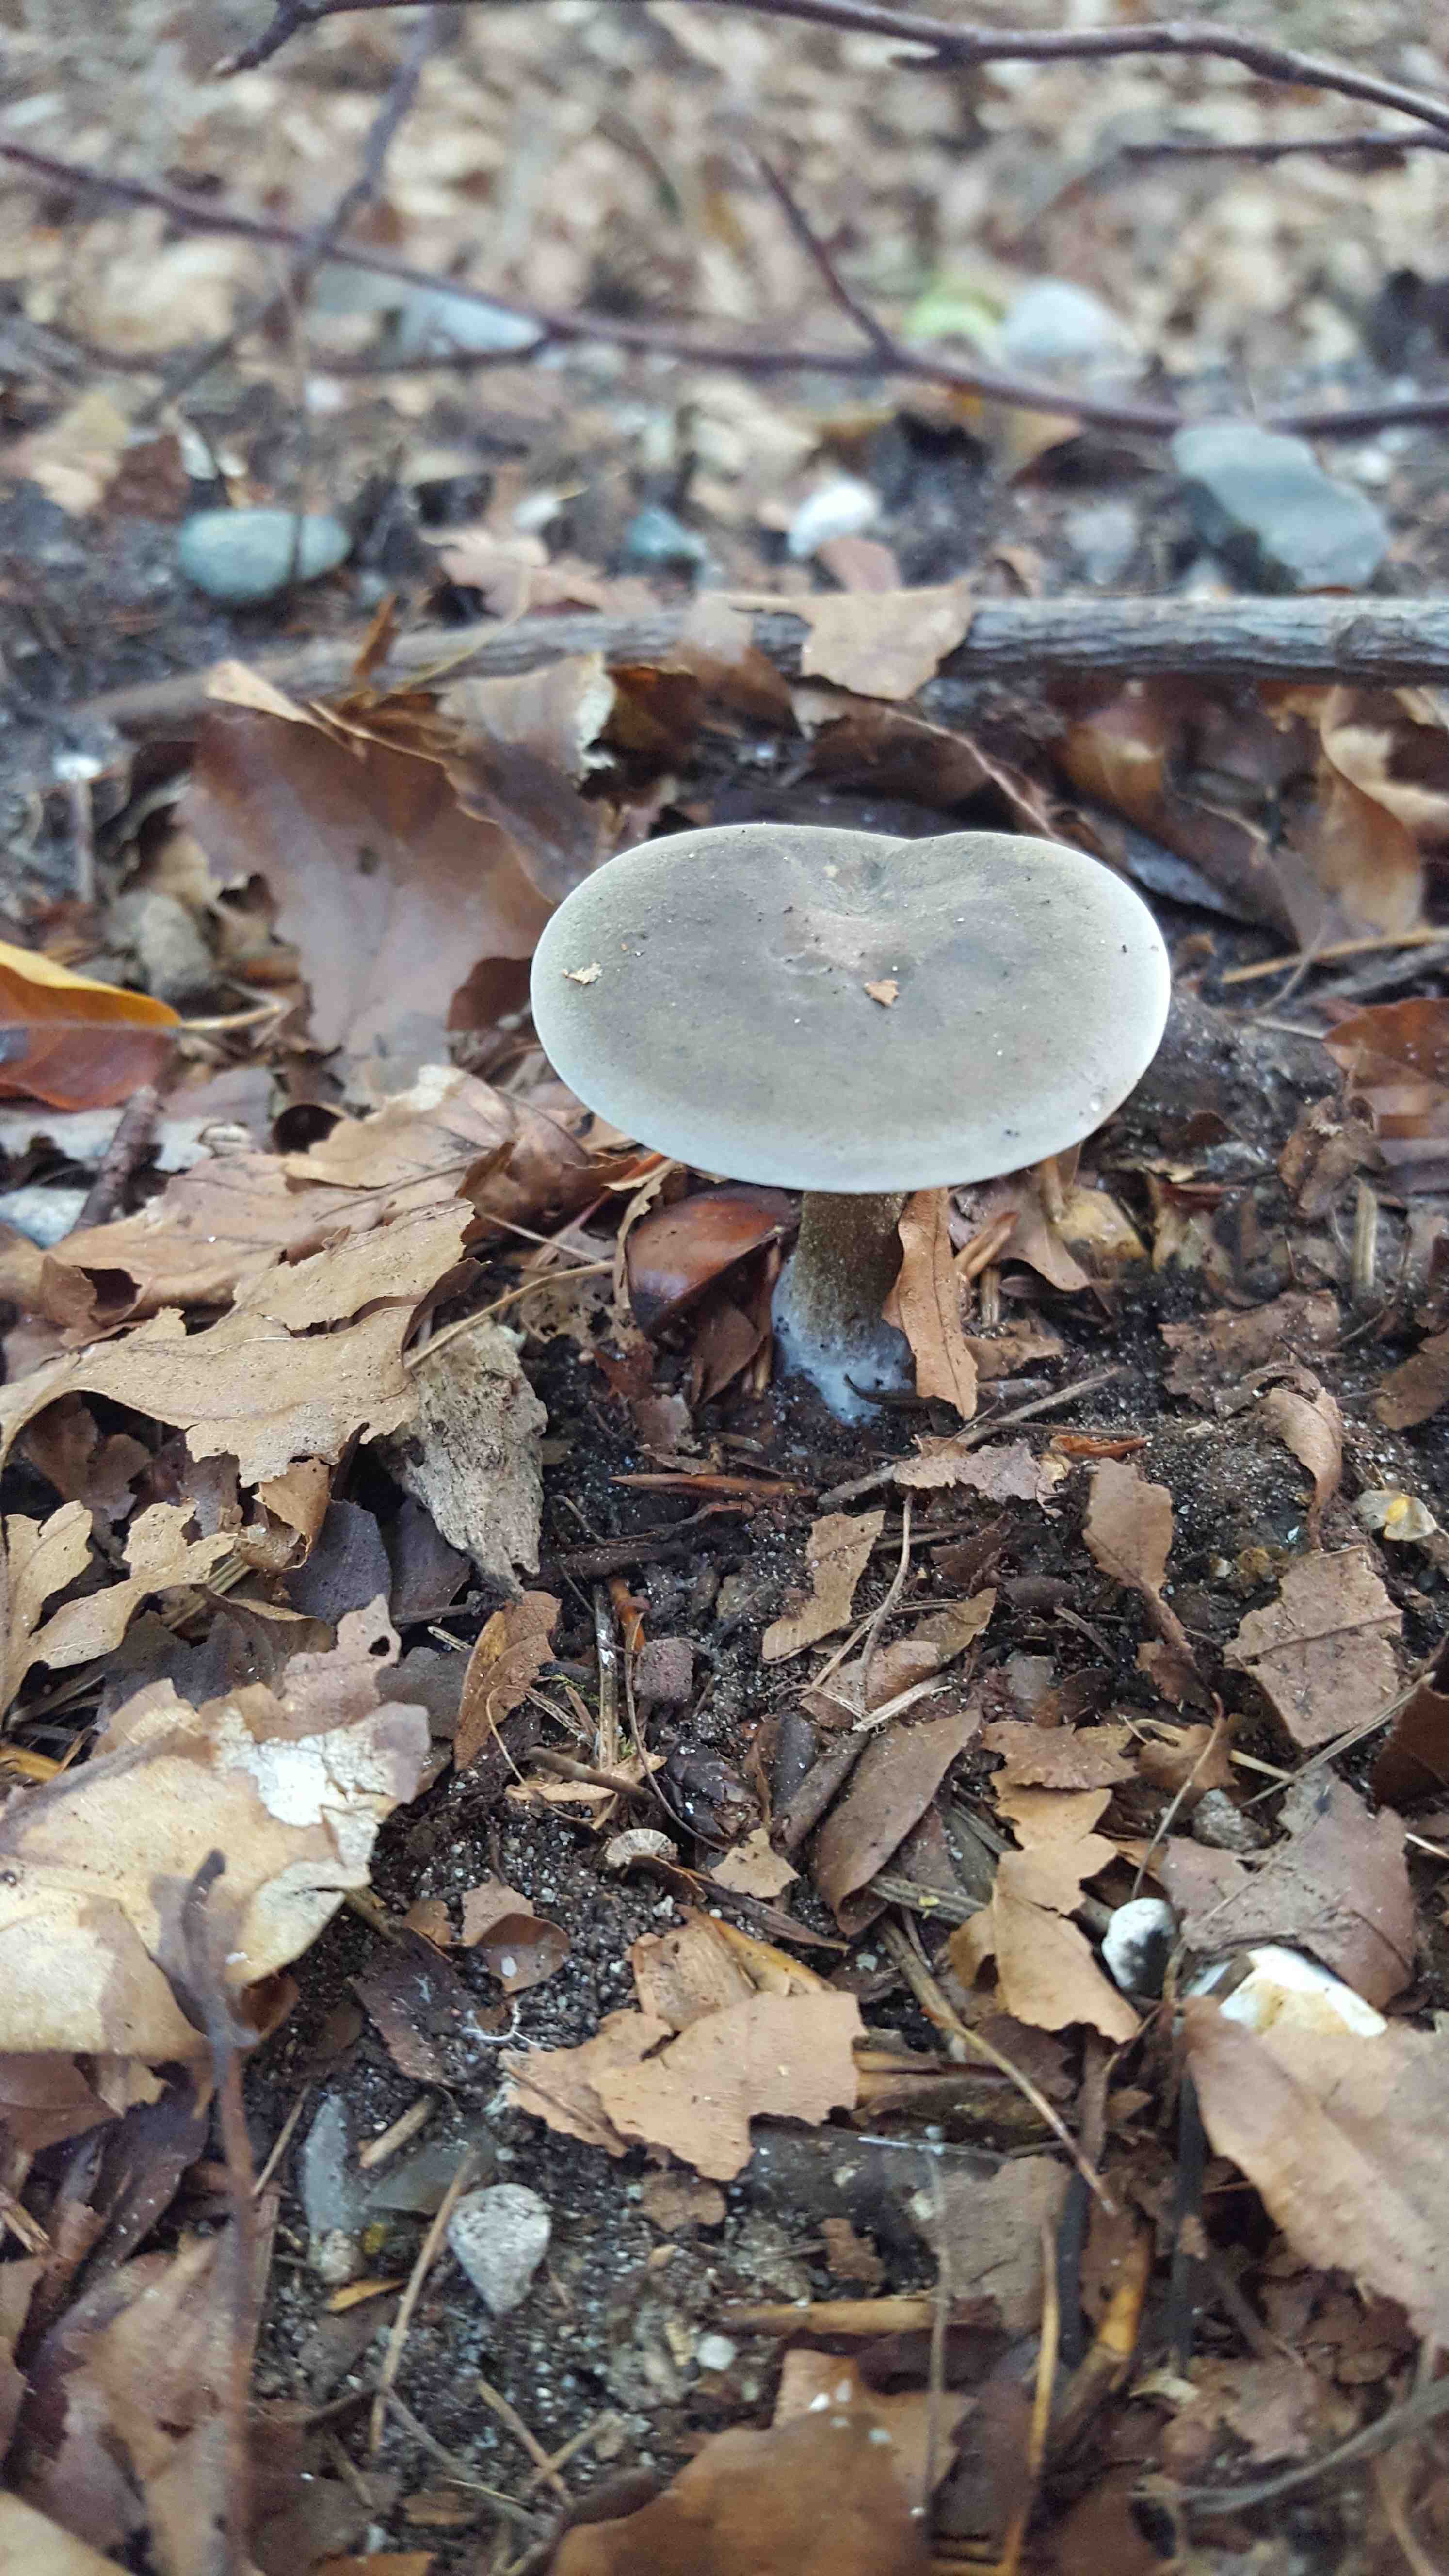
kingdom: Fungi
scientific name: Fungi
